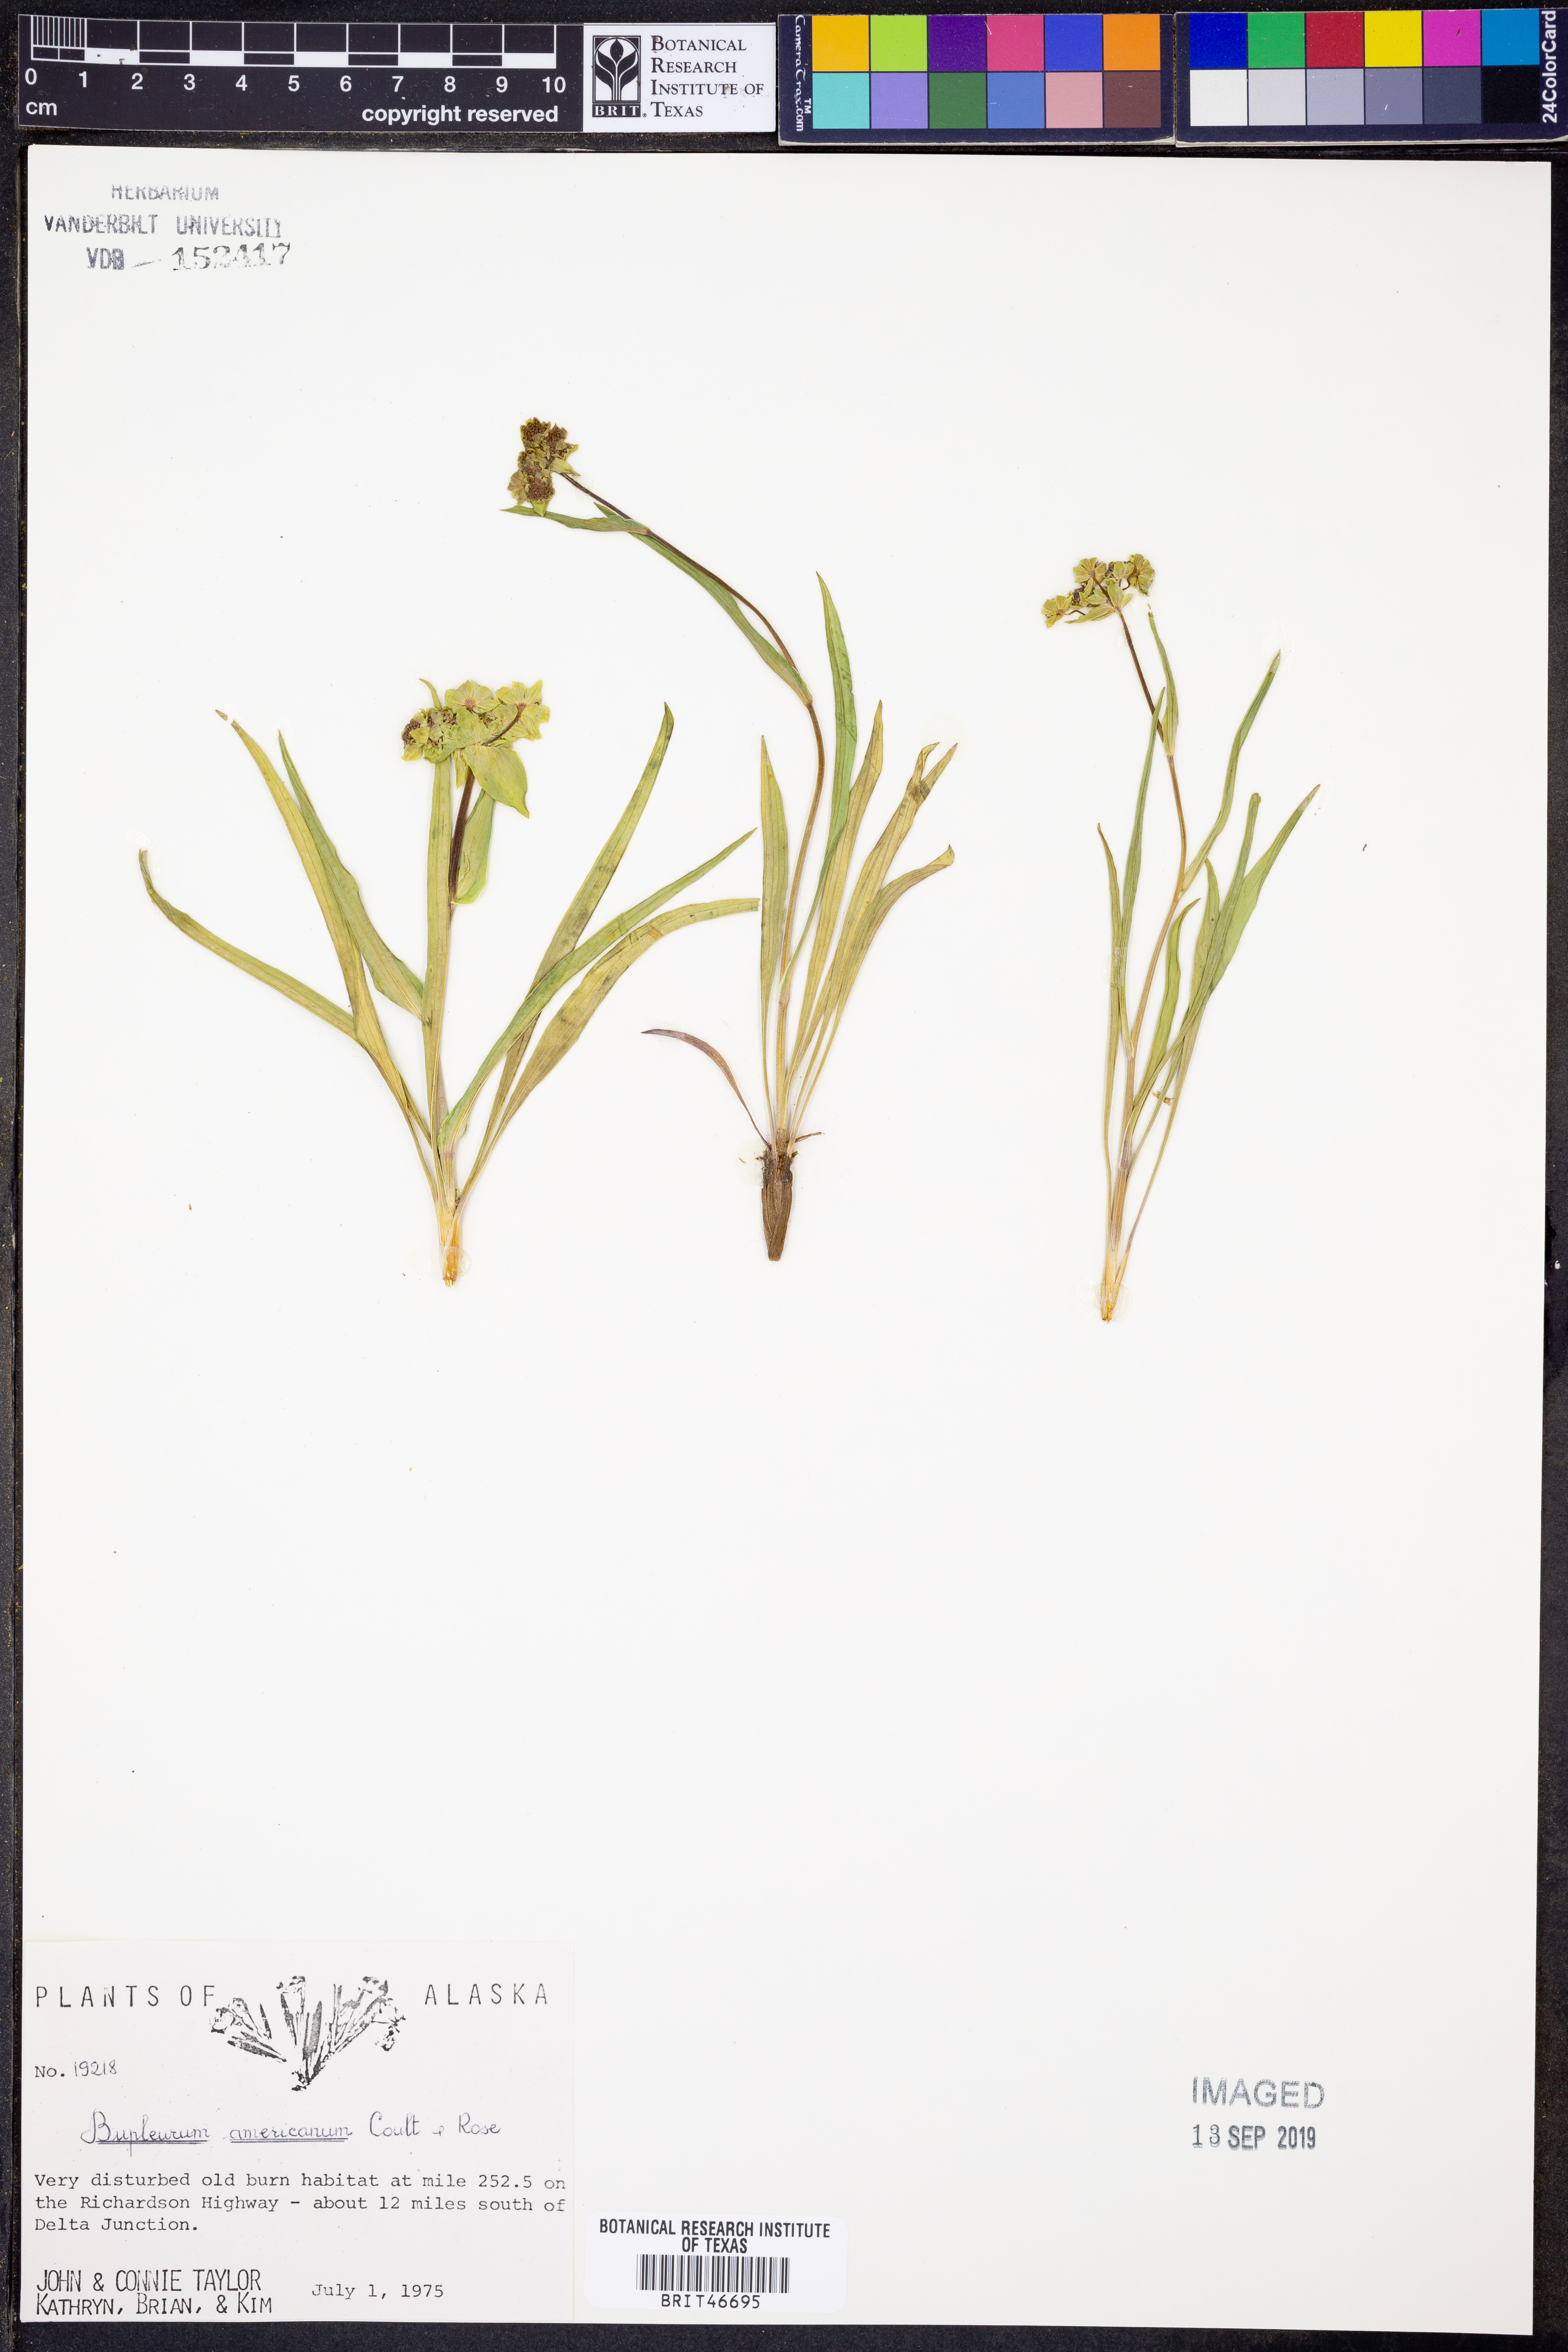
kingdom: Plantae
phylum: Tracheophyta
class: Magnoliopsida
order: Apiales
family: Apiaceae
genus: Bupleurum
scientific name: Bupleurum americanum
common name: American thoroughwax
